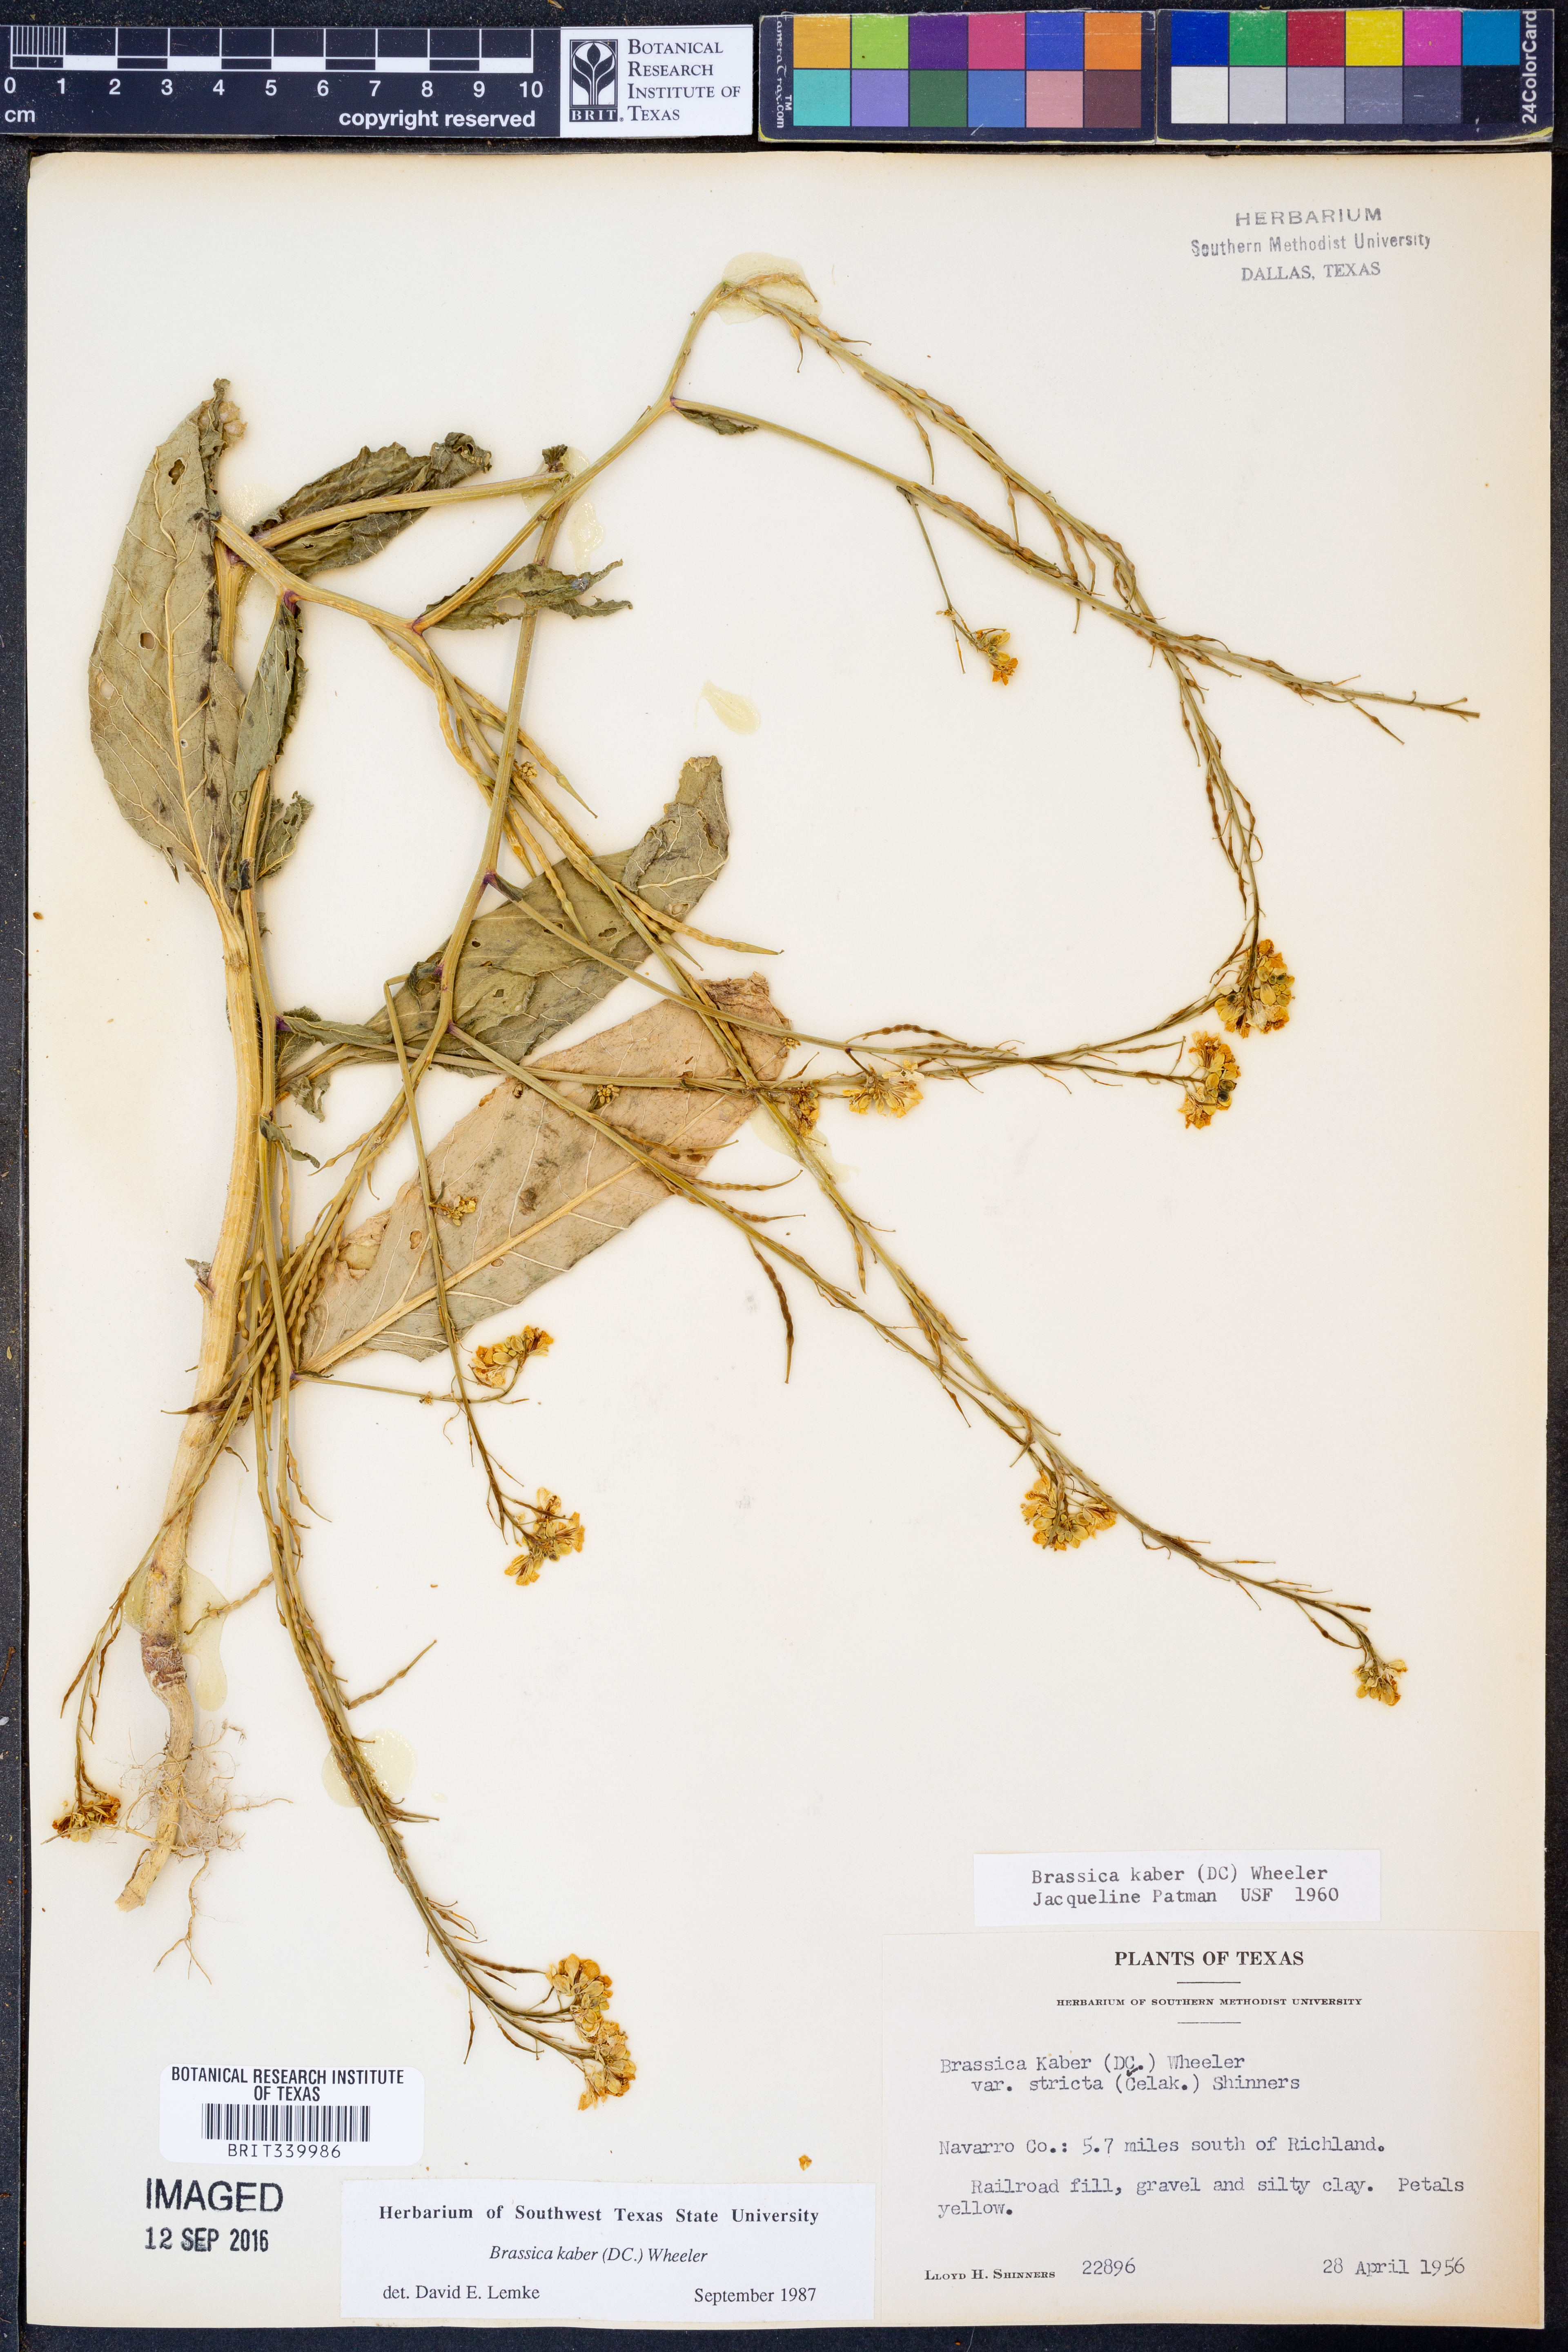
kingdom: Plantae
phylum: Tracheophyta
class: Magnoliopsida
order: Brassicales
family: Brassicaceae
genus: Sinapis
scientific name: Sinapis arvensis
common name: Charlock
